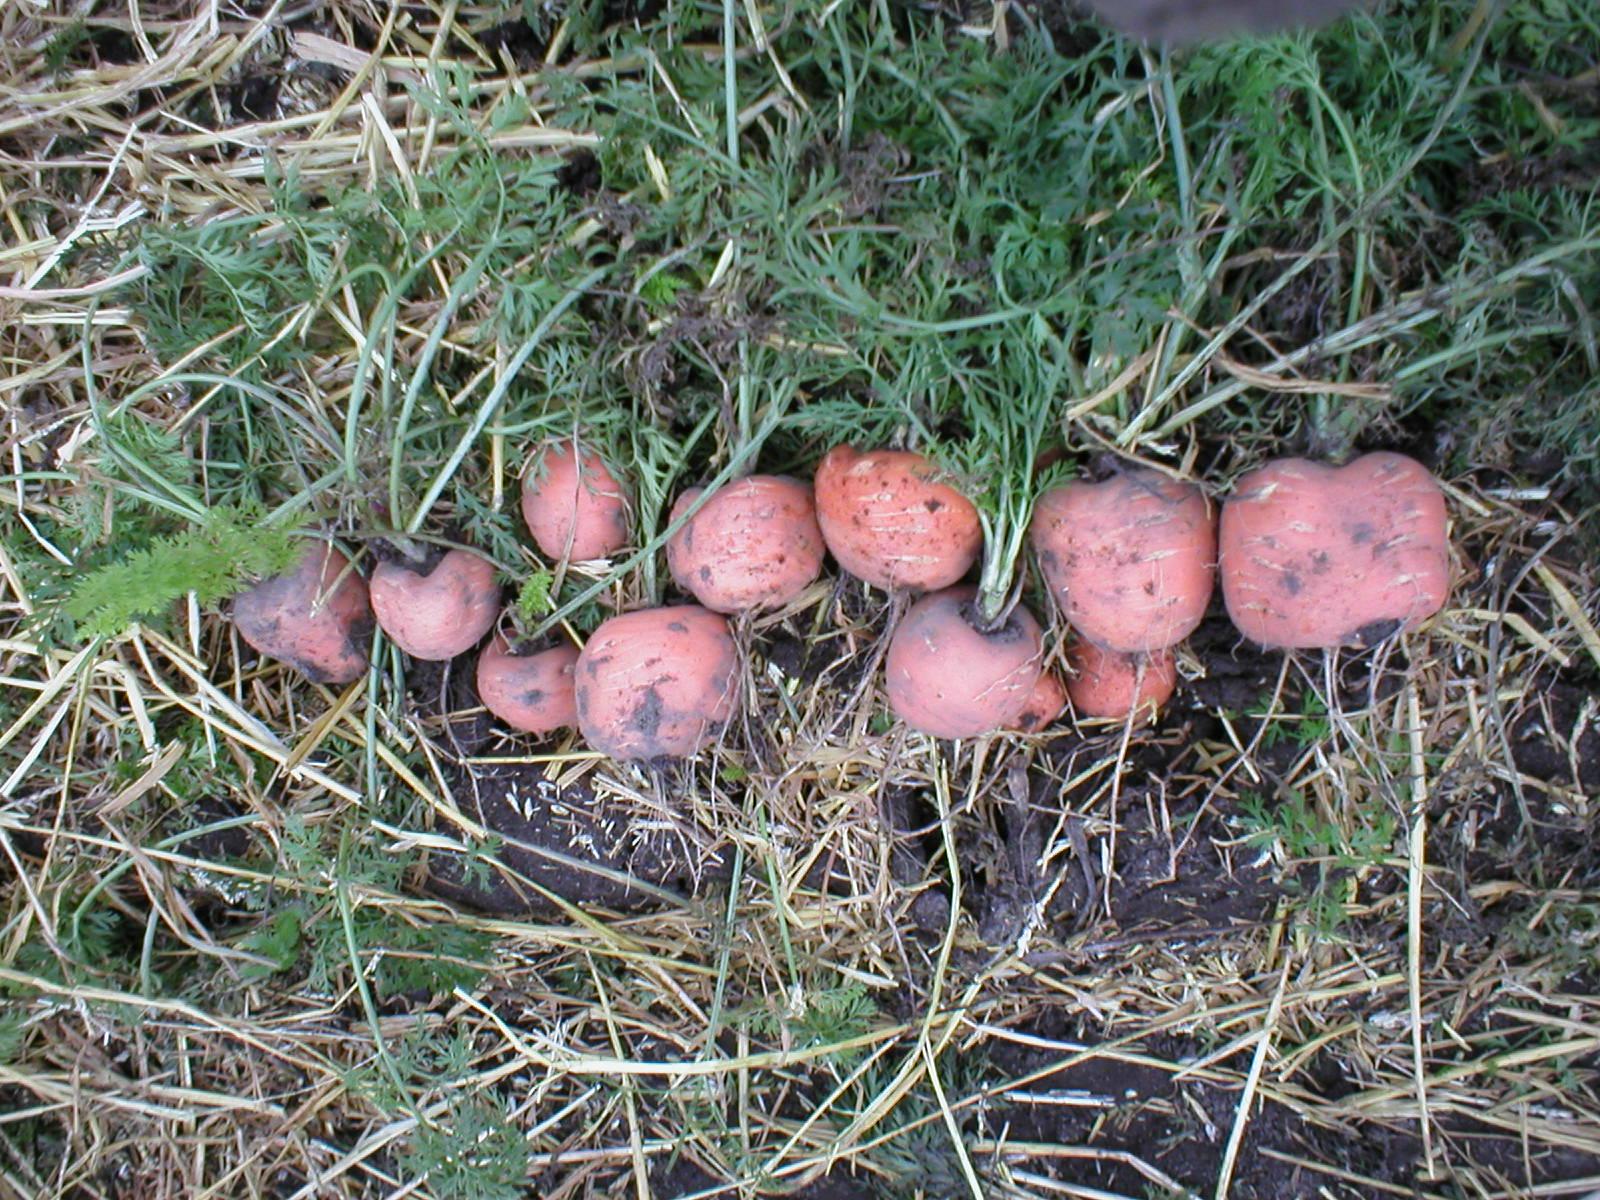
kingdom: Plantae
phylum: Tracheophyta
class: Magnoliopsida
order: Apiales
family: Apiaceae
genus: Daucus
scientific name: Daucus carota
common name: Wild carrot
